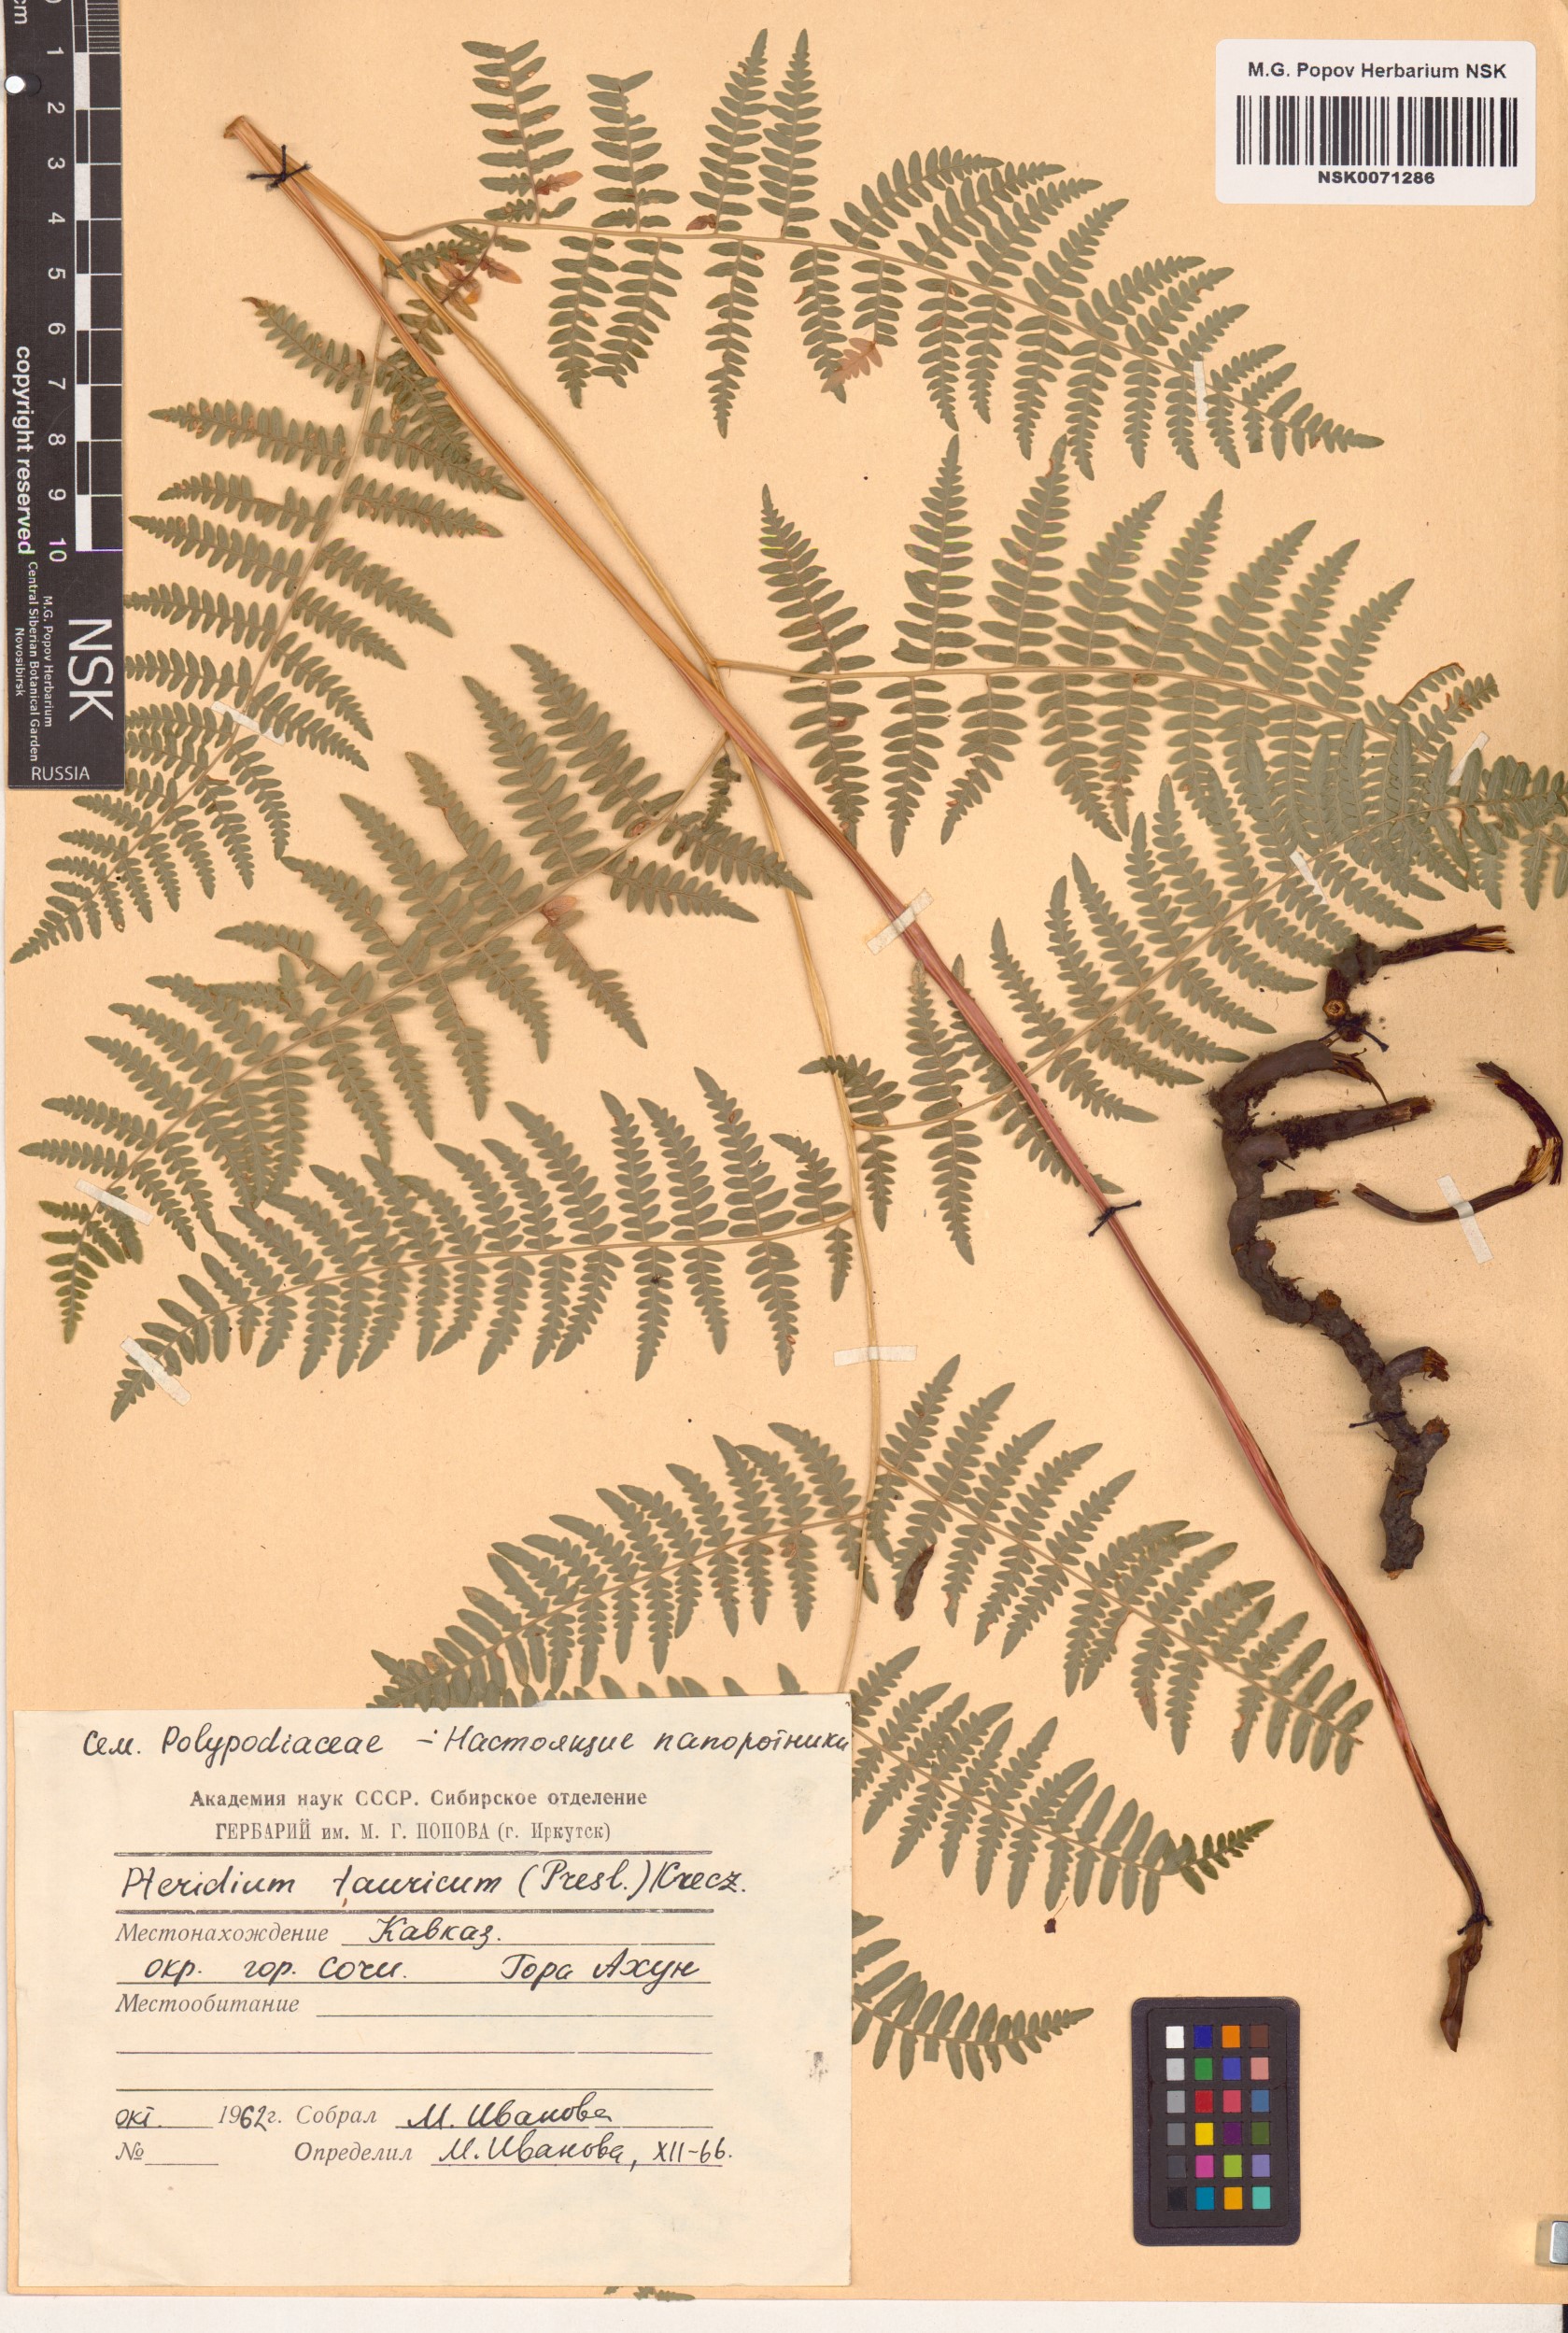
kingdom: Plantae
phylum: Tracheophyta
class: Polypodiopsida
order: Polypodiales
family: Dennstaedtiaceae
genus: Pteridium
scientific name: Pteridium aquilinum
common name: Bracken
